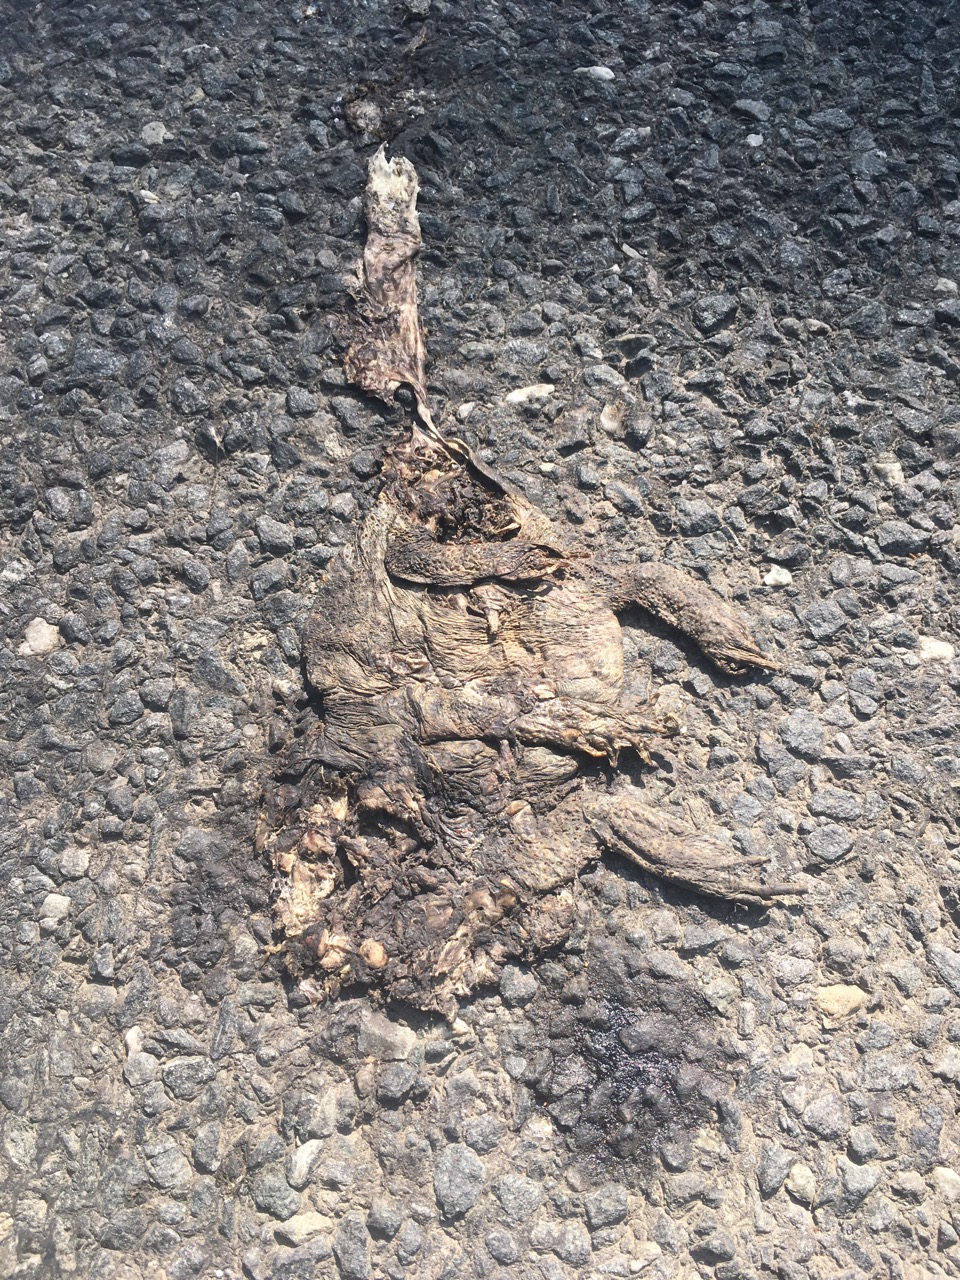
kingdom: Animalia
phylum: Chordata
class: Amphibia
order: Anura
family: Bufonidae
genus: Bufo
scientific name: Bufo bufo
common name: Common toad
